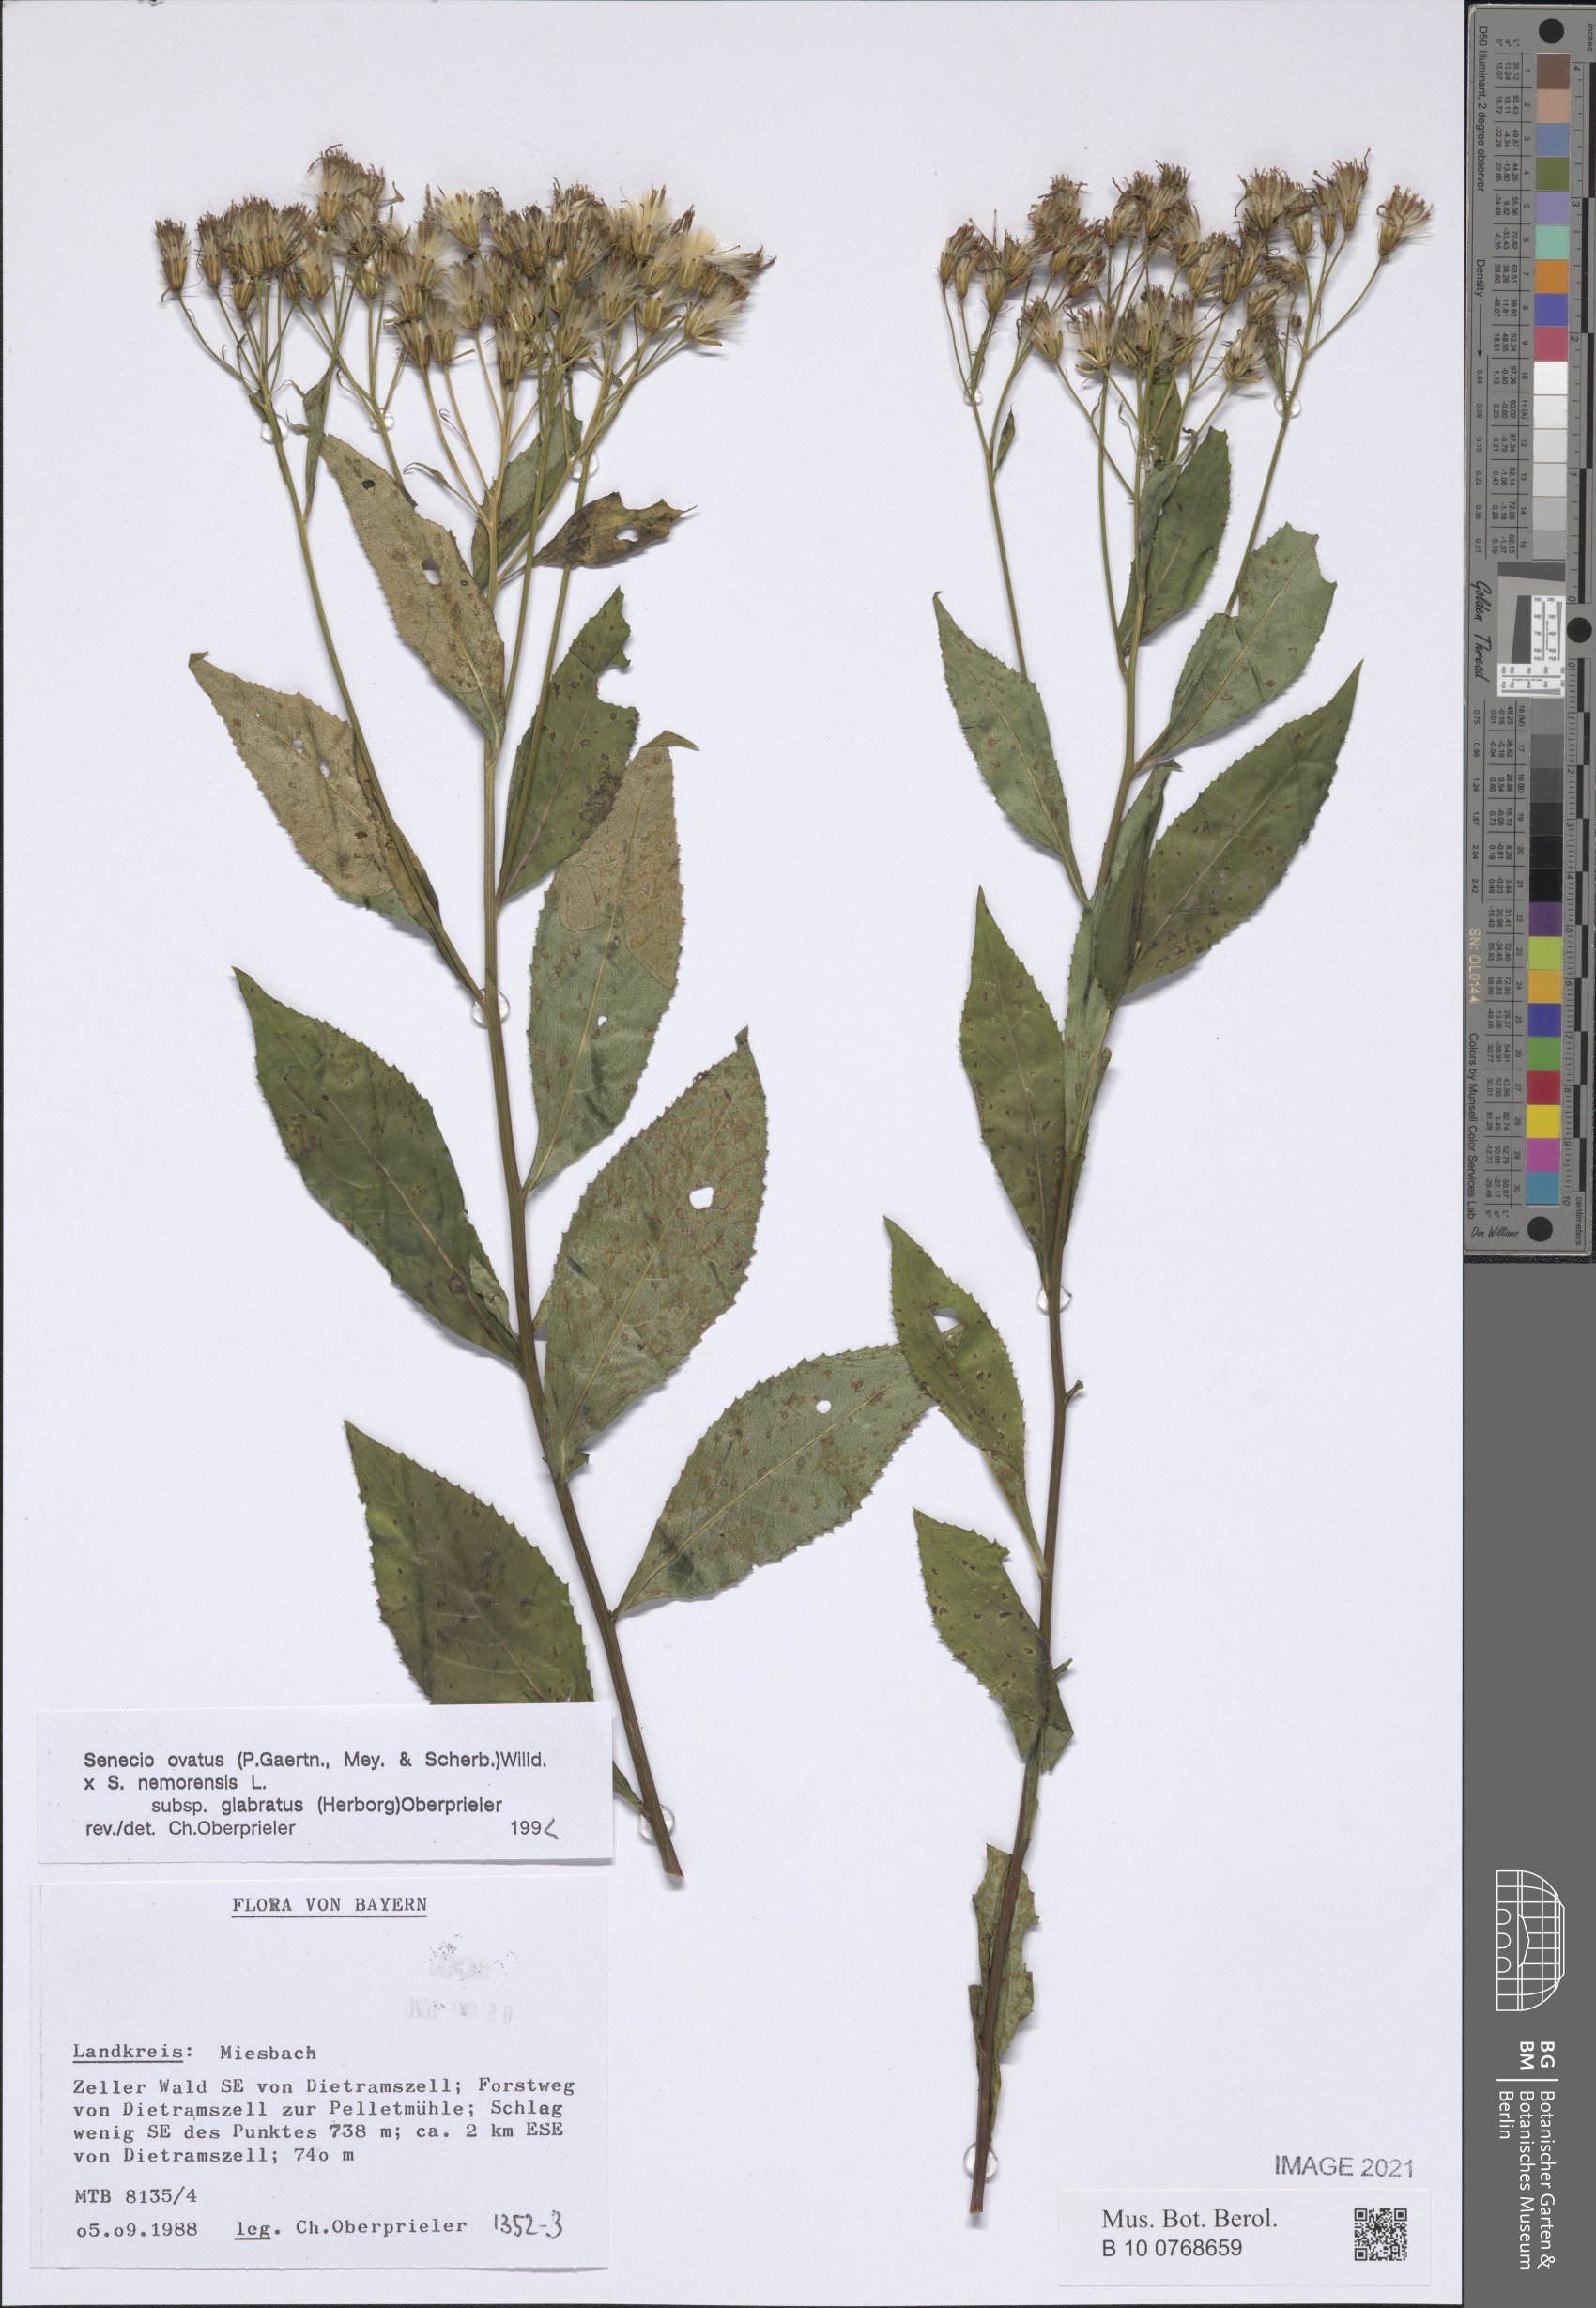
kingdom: Plantae
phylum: Tracheophyta
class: Magnoliopsida
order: Asterales
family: Asteraceae
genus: Senecio
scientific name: Senecio ovatus
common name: Wood ragwort
